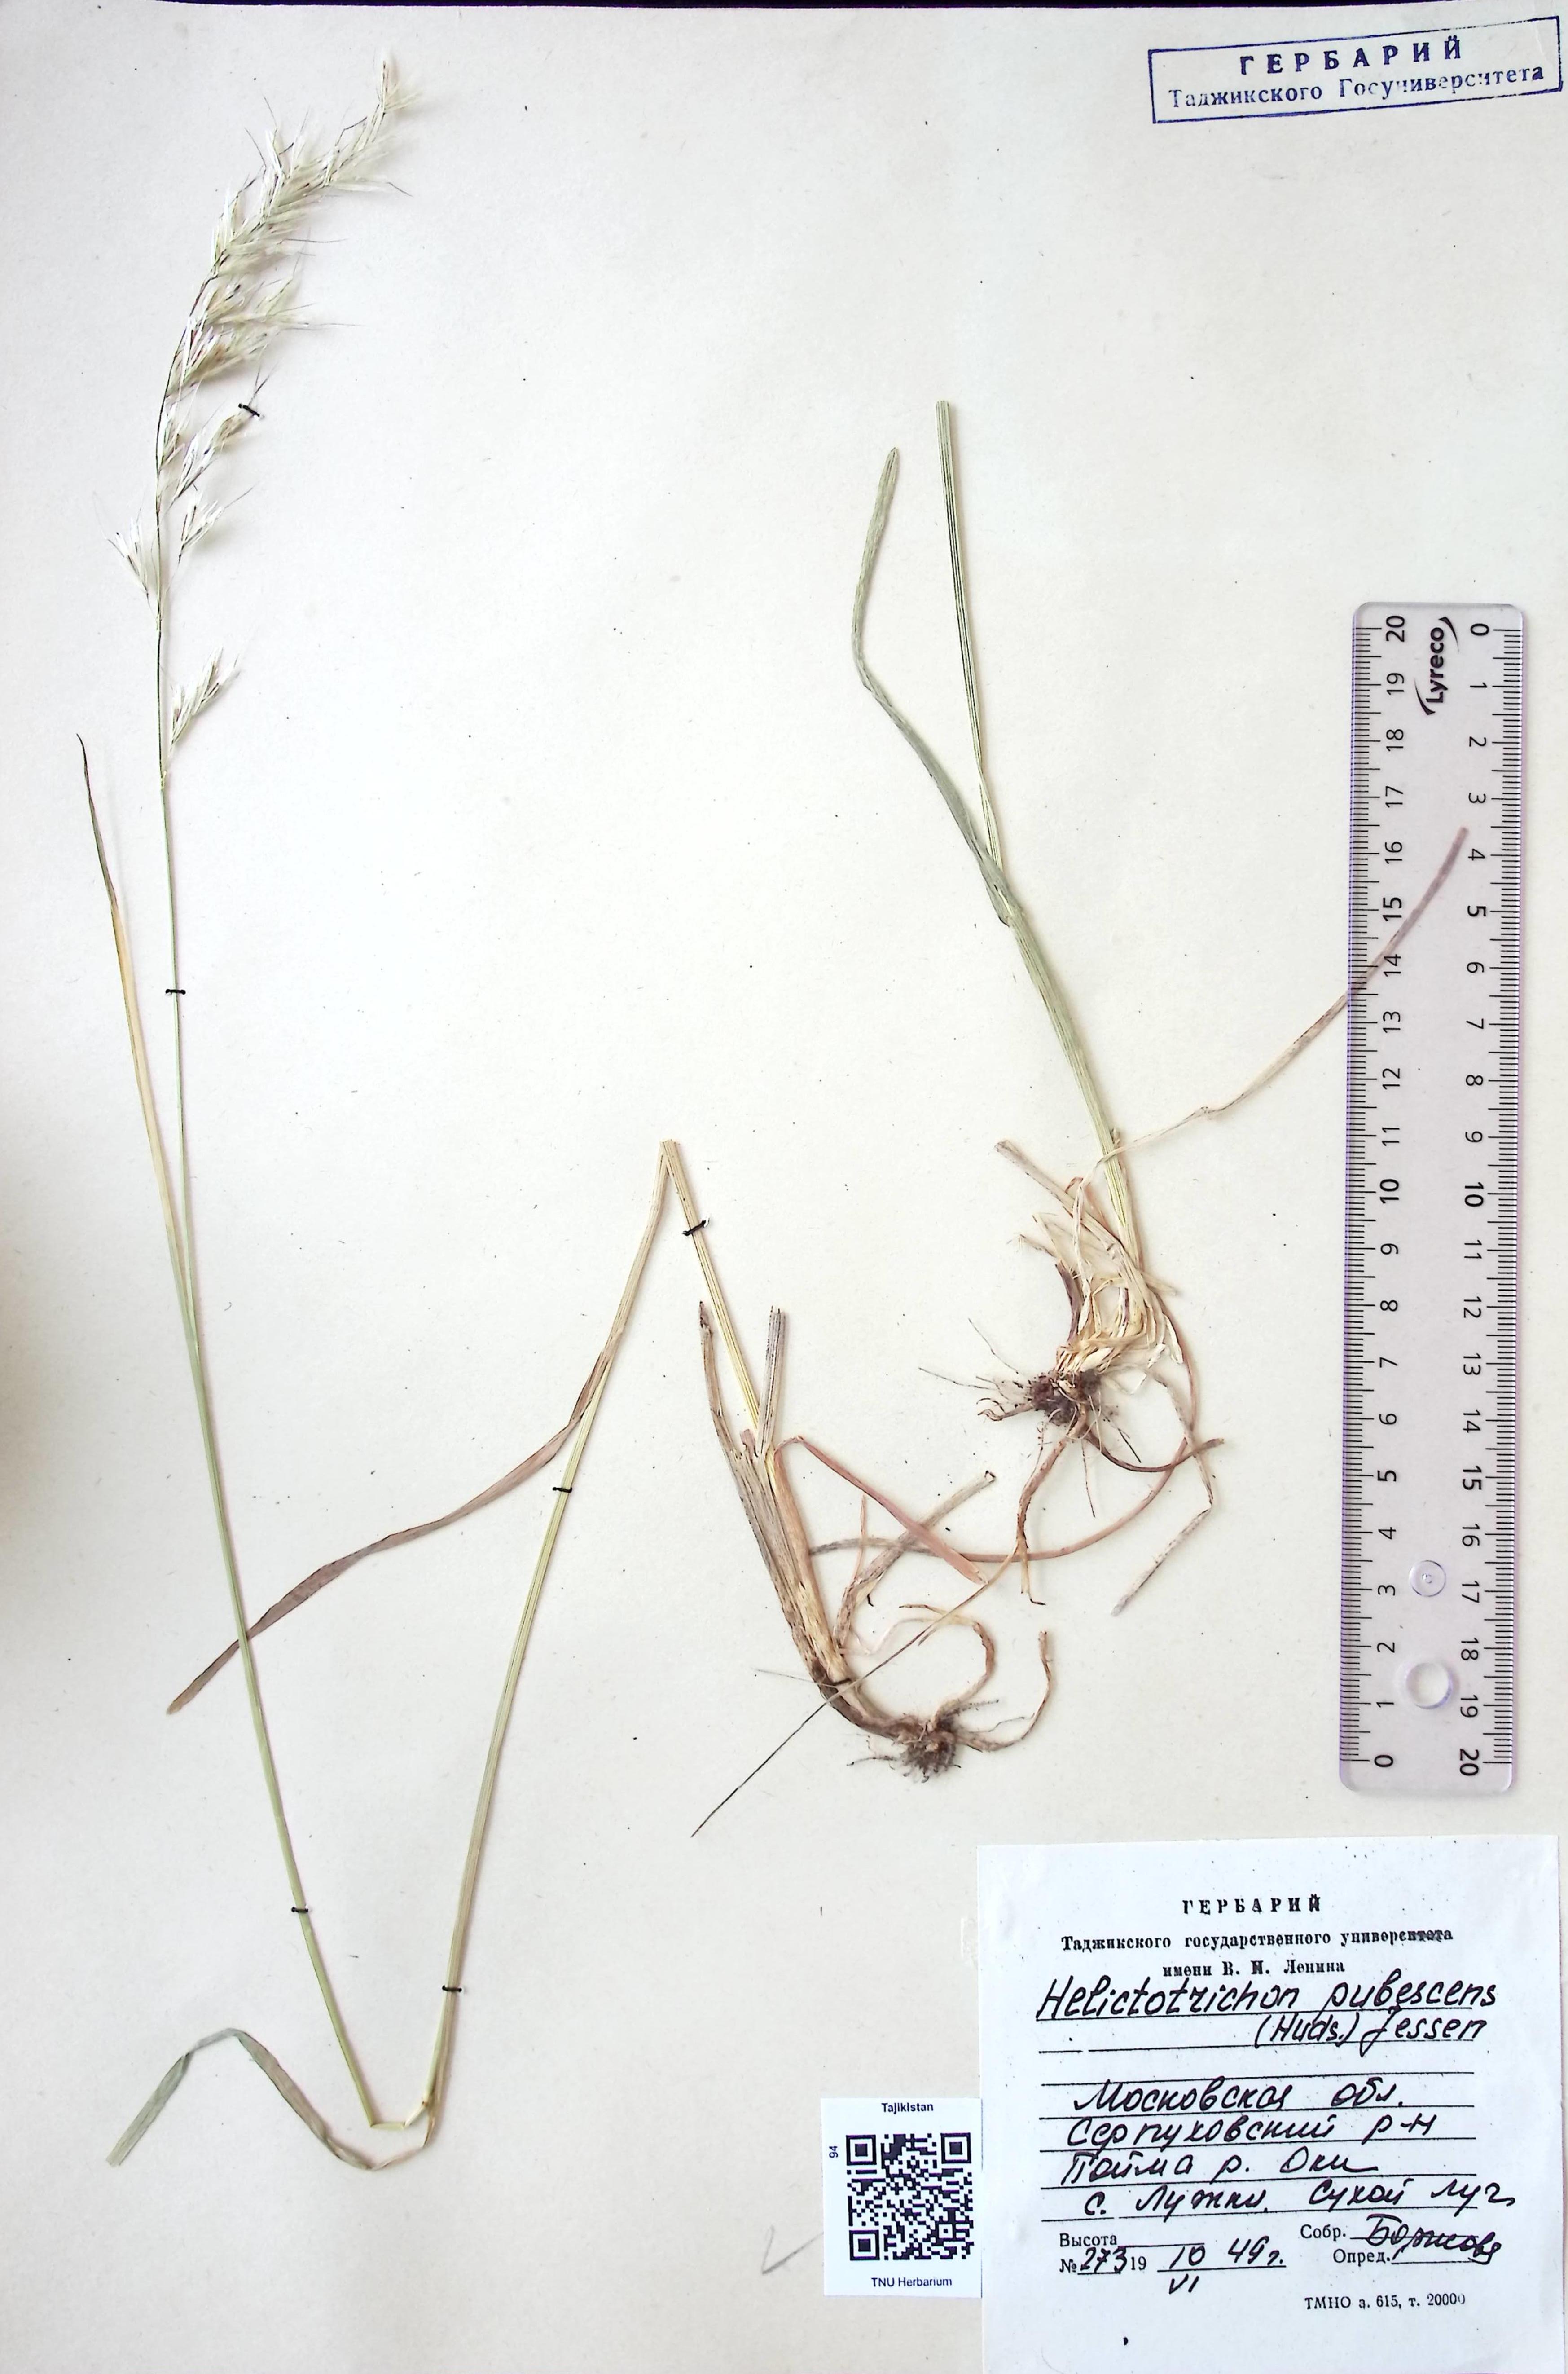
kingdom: Plantae
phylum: Tracheophyta
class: Liliopsida
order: Poales
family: Poaceae
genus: Avenula
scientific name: Avenula pubescens
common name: Downy alpine oatgrass
